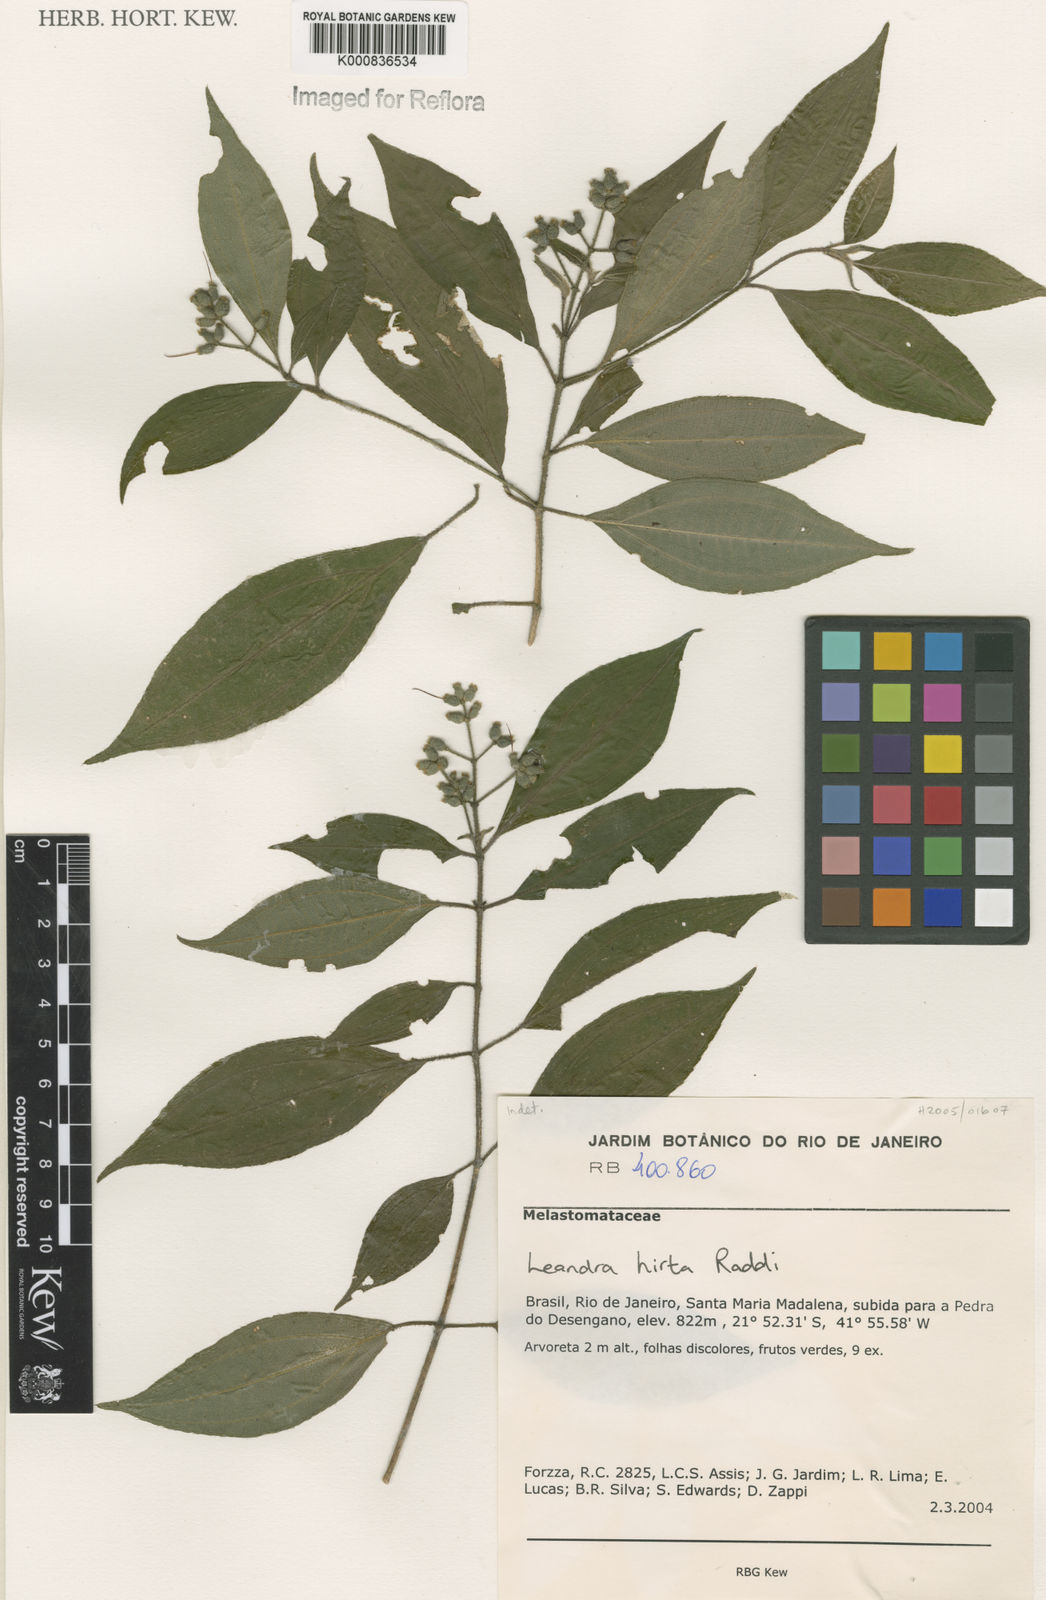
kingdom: Plantae
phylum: Tracheophyta
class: Magnoliopsida
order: Myrtales
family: Melastomataceae
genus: Miconia
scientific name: Miconia dubia
